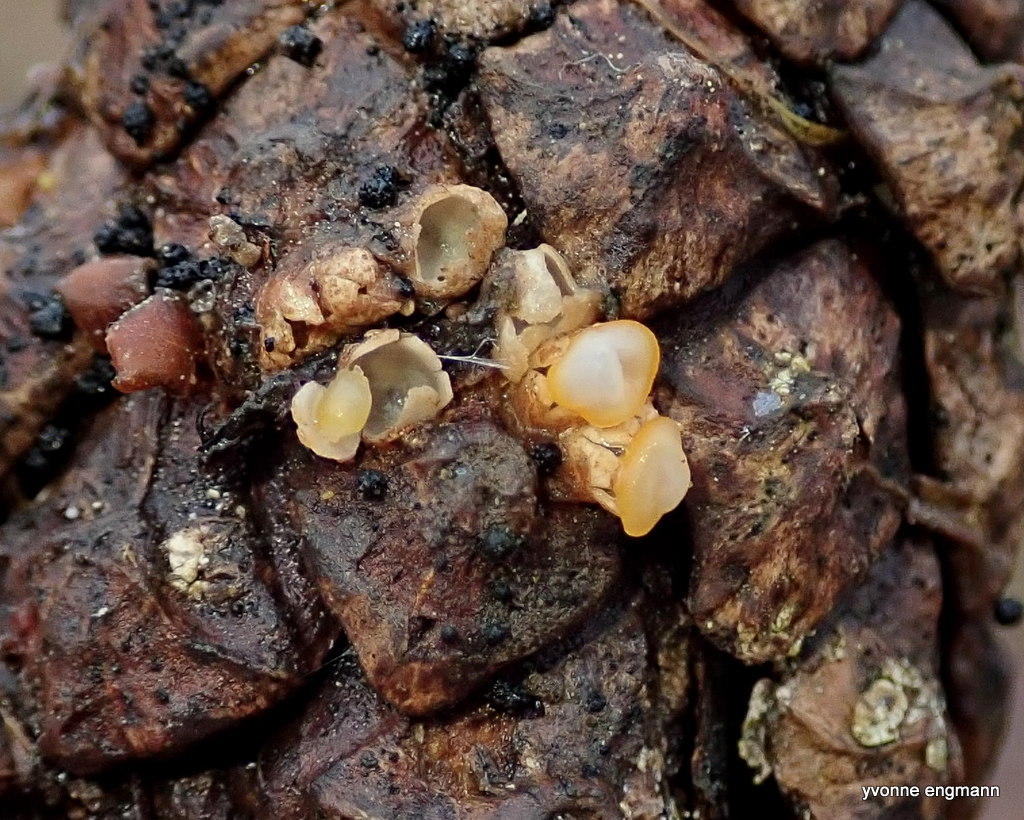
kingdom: Fungi
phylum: Basidiomycota
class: Agaricomycetes
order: Geastrales
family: Geastraceae
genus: Sphaerobolus
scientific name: Sphaerobolus stellatus
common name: bombekaster
